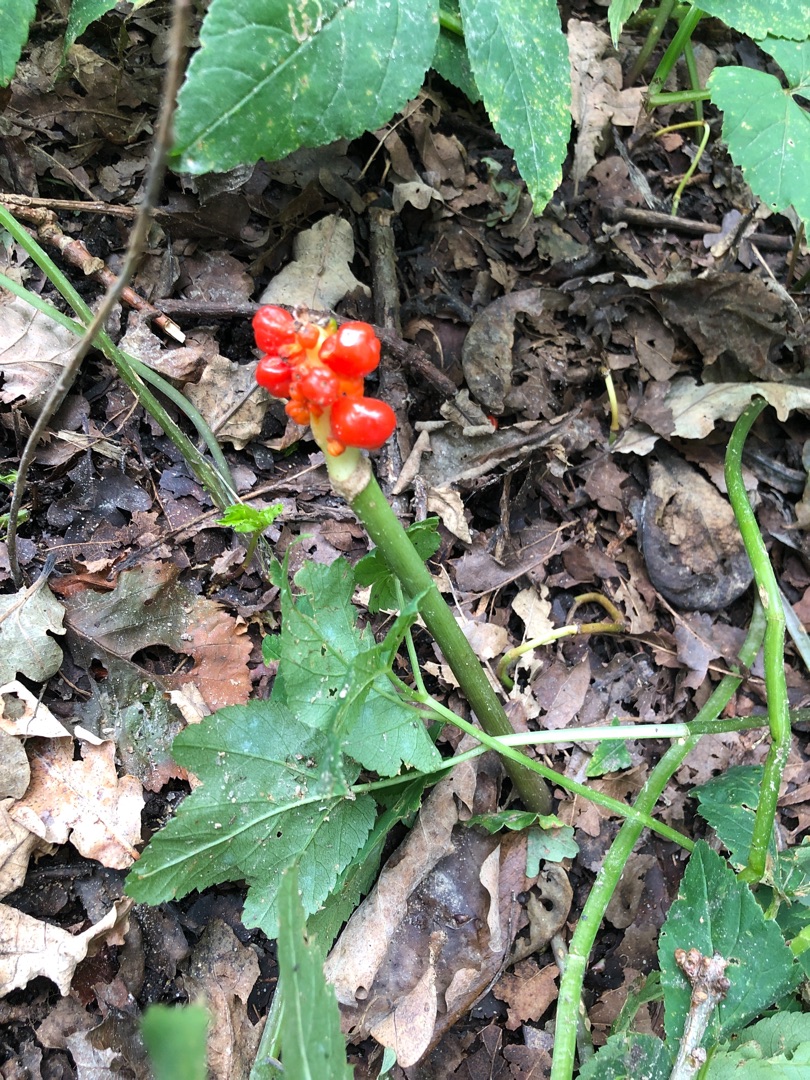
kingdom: Plantae
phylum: Tracheophyta
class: Liliopsida
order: Alismatales
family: Araceae
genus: Arum
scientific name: Arum
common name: Arumslægten
